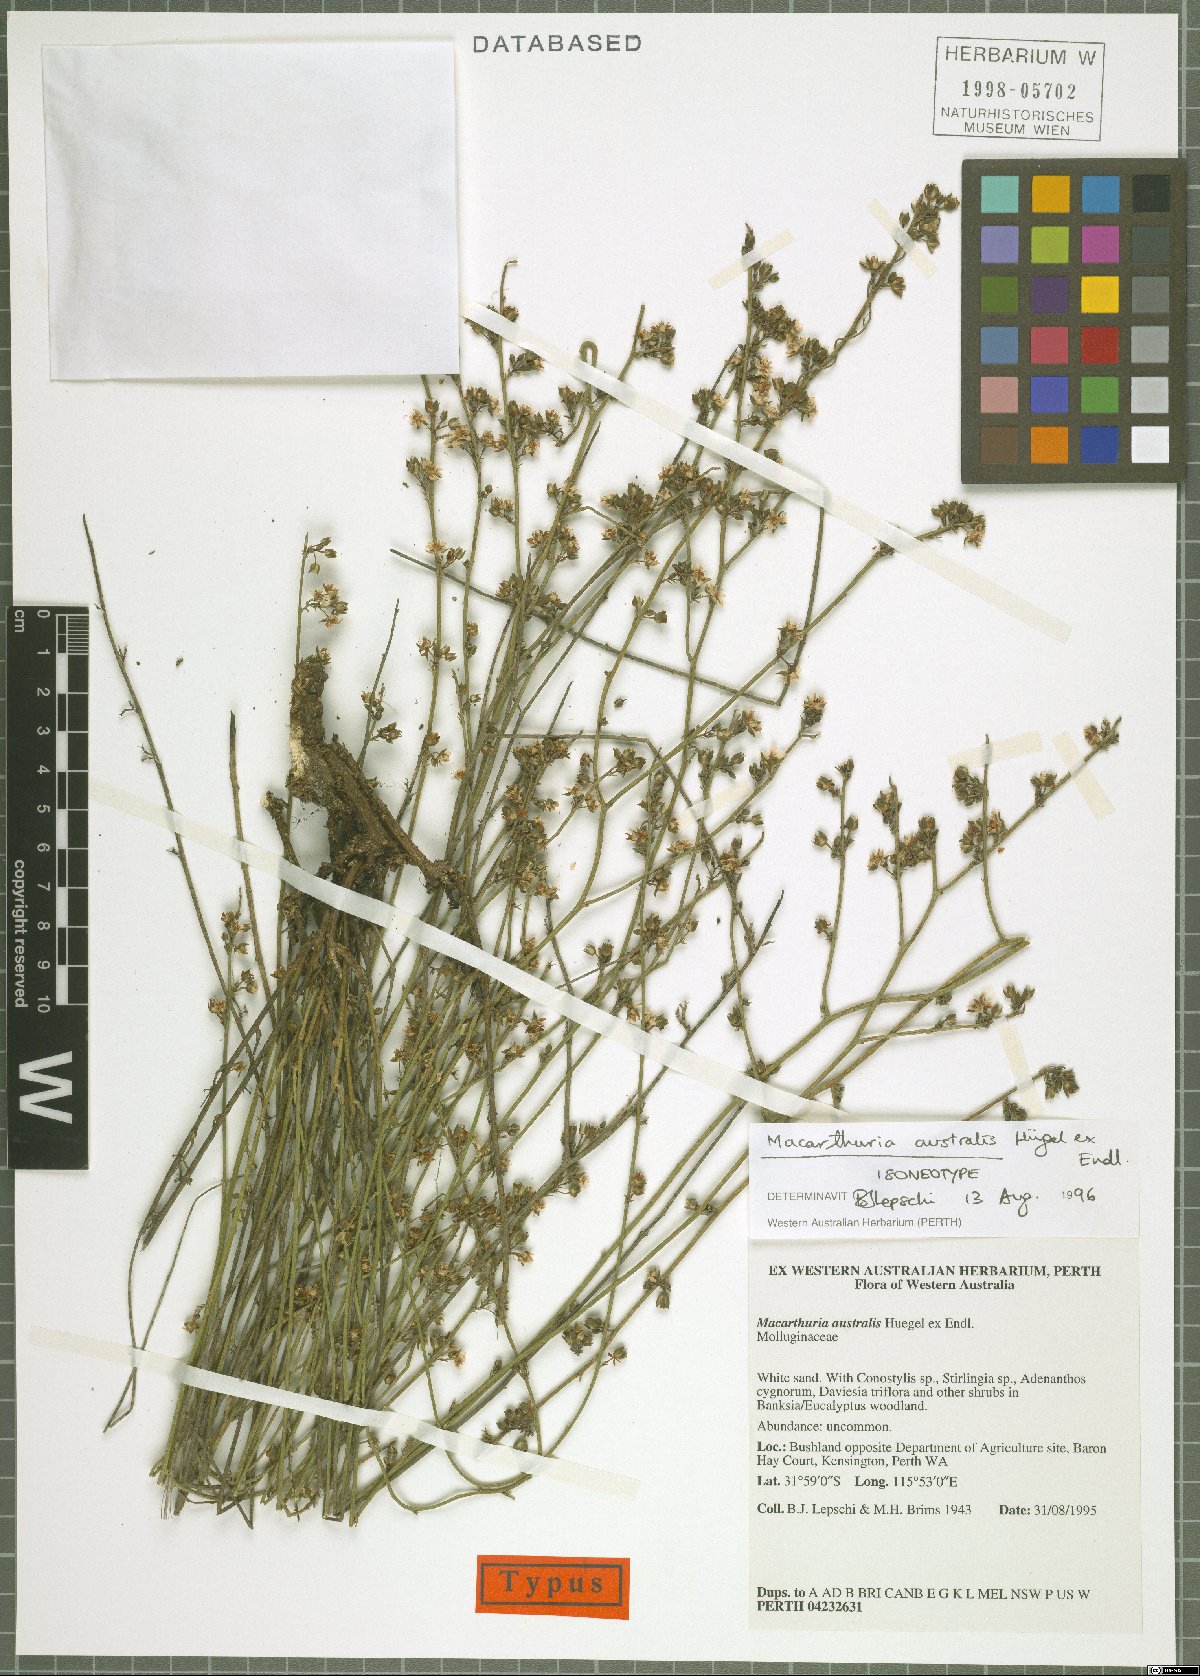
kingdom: Plantae
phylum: Tracheophyta
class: Magnoliopsida
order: Caryophyllales
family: Macarthuriaceae
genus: Macarthuria
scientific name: Macarthuria australis
